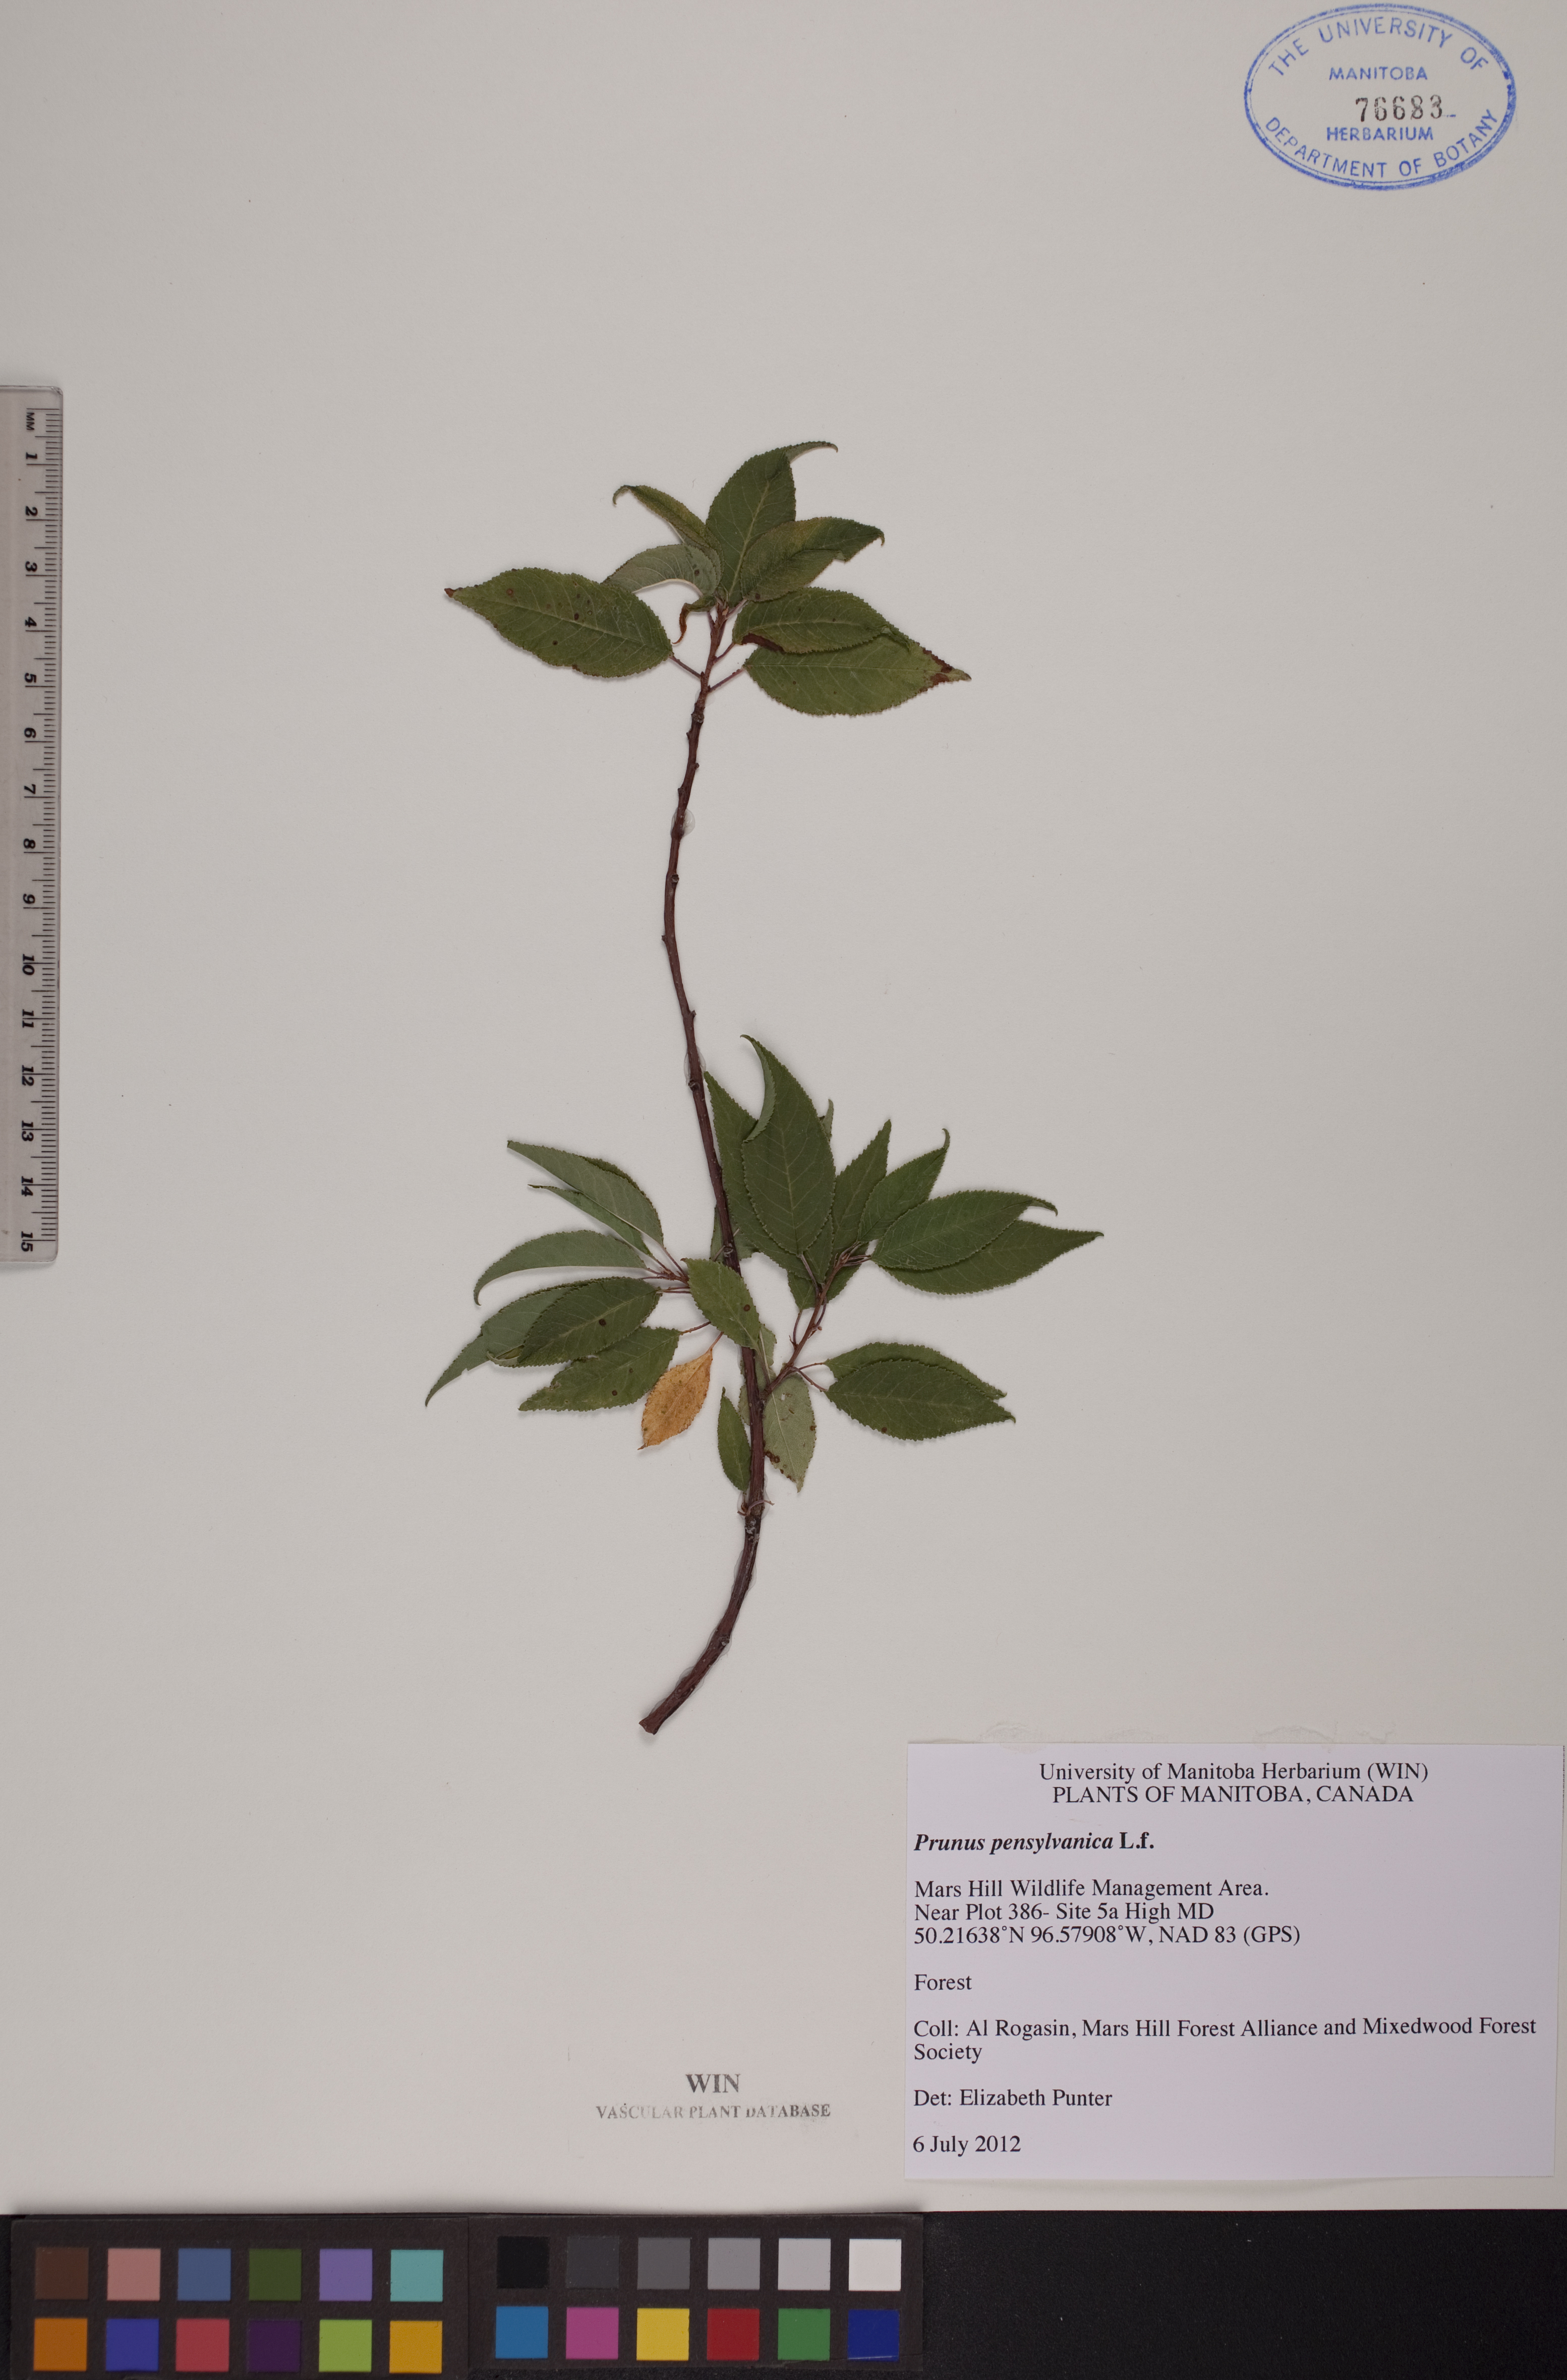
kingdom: Plantae
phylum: Tracheophyta
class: Magnoliopsida
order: Rosales
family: Rosaceae
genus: Prunus
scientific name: Prunus pensylvanica
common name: Pin cherry
